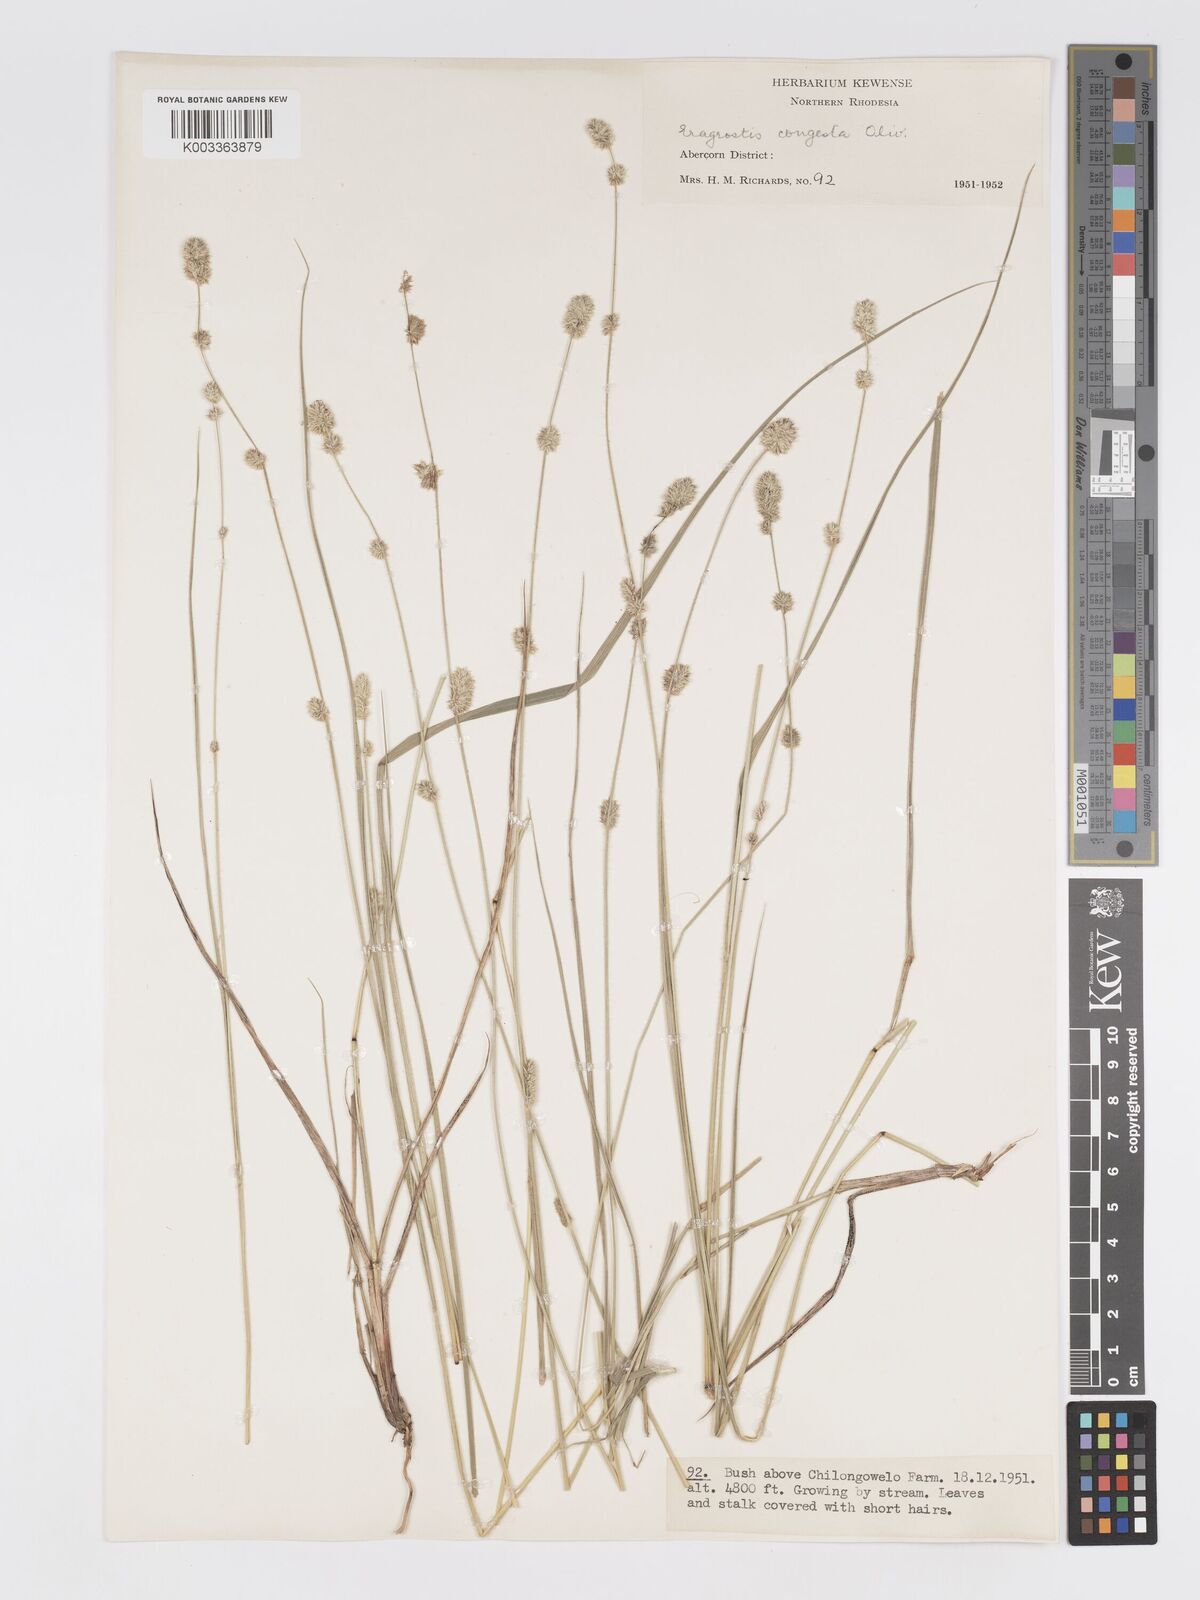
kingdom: Plantae
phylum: Tracheophyta
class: Liliopsida
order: Poales
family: Poaceae
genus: Eragrostis
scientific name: Eragrostis congesta
